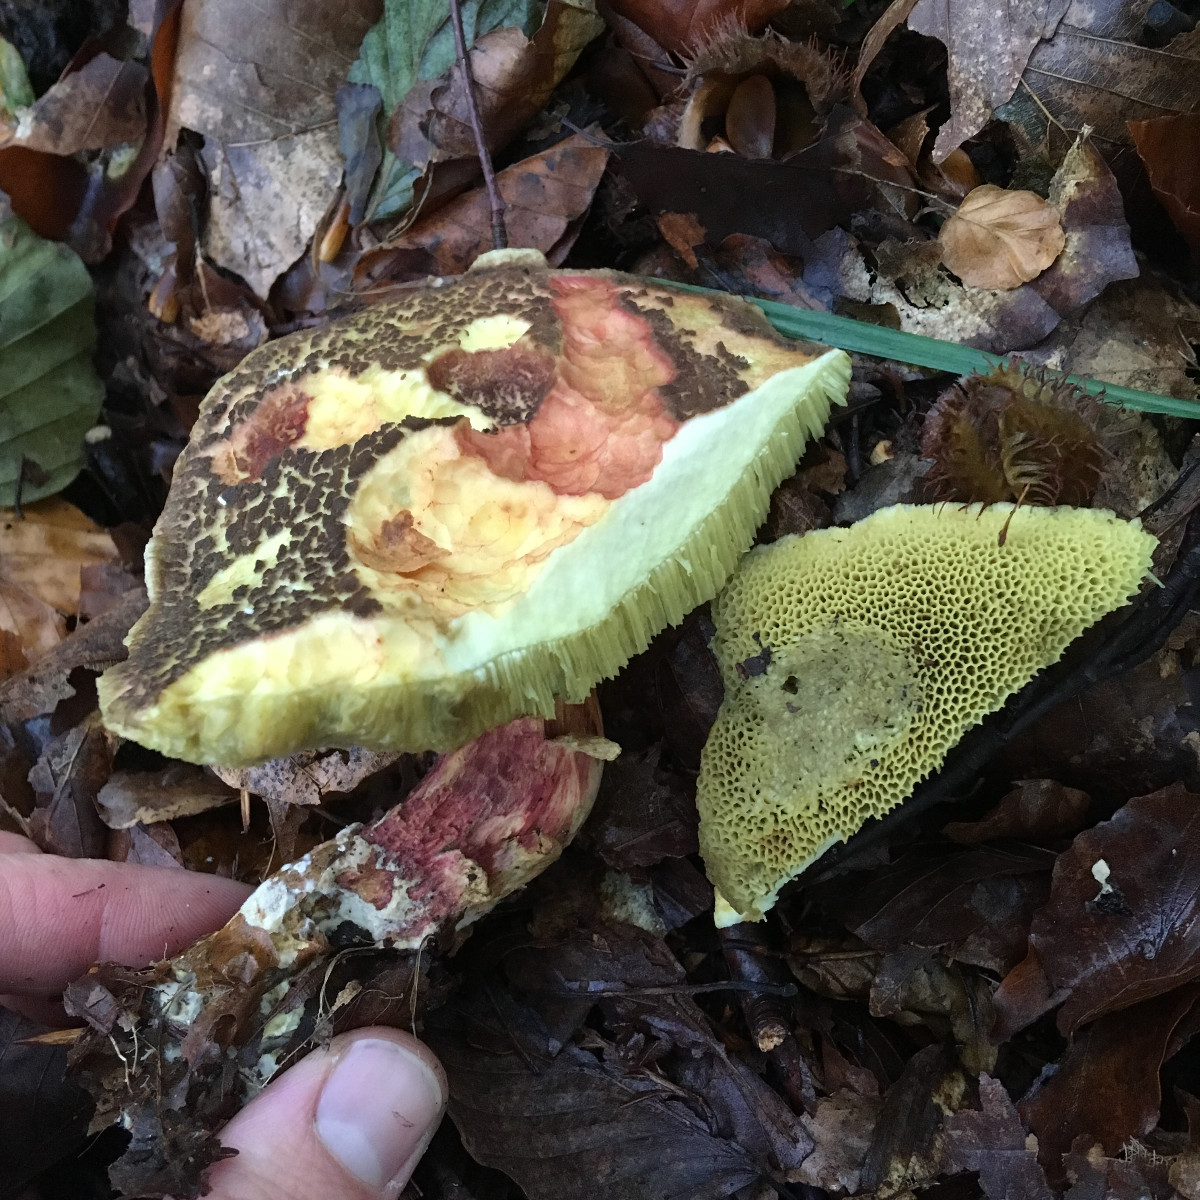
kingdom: Fungi
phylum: Basidiomycota
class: Agaricomycetes
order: Boletales
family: Boletaceae
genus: Xerocomellus
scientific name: Xerocomellus
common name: dværgrørhat
